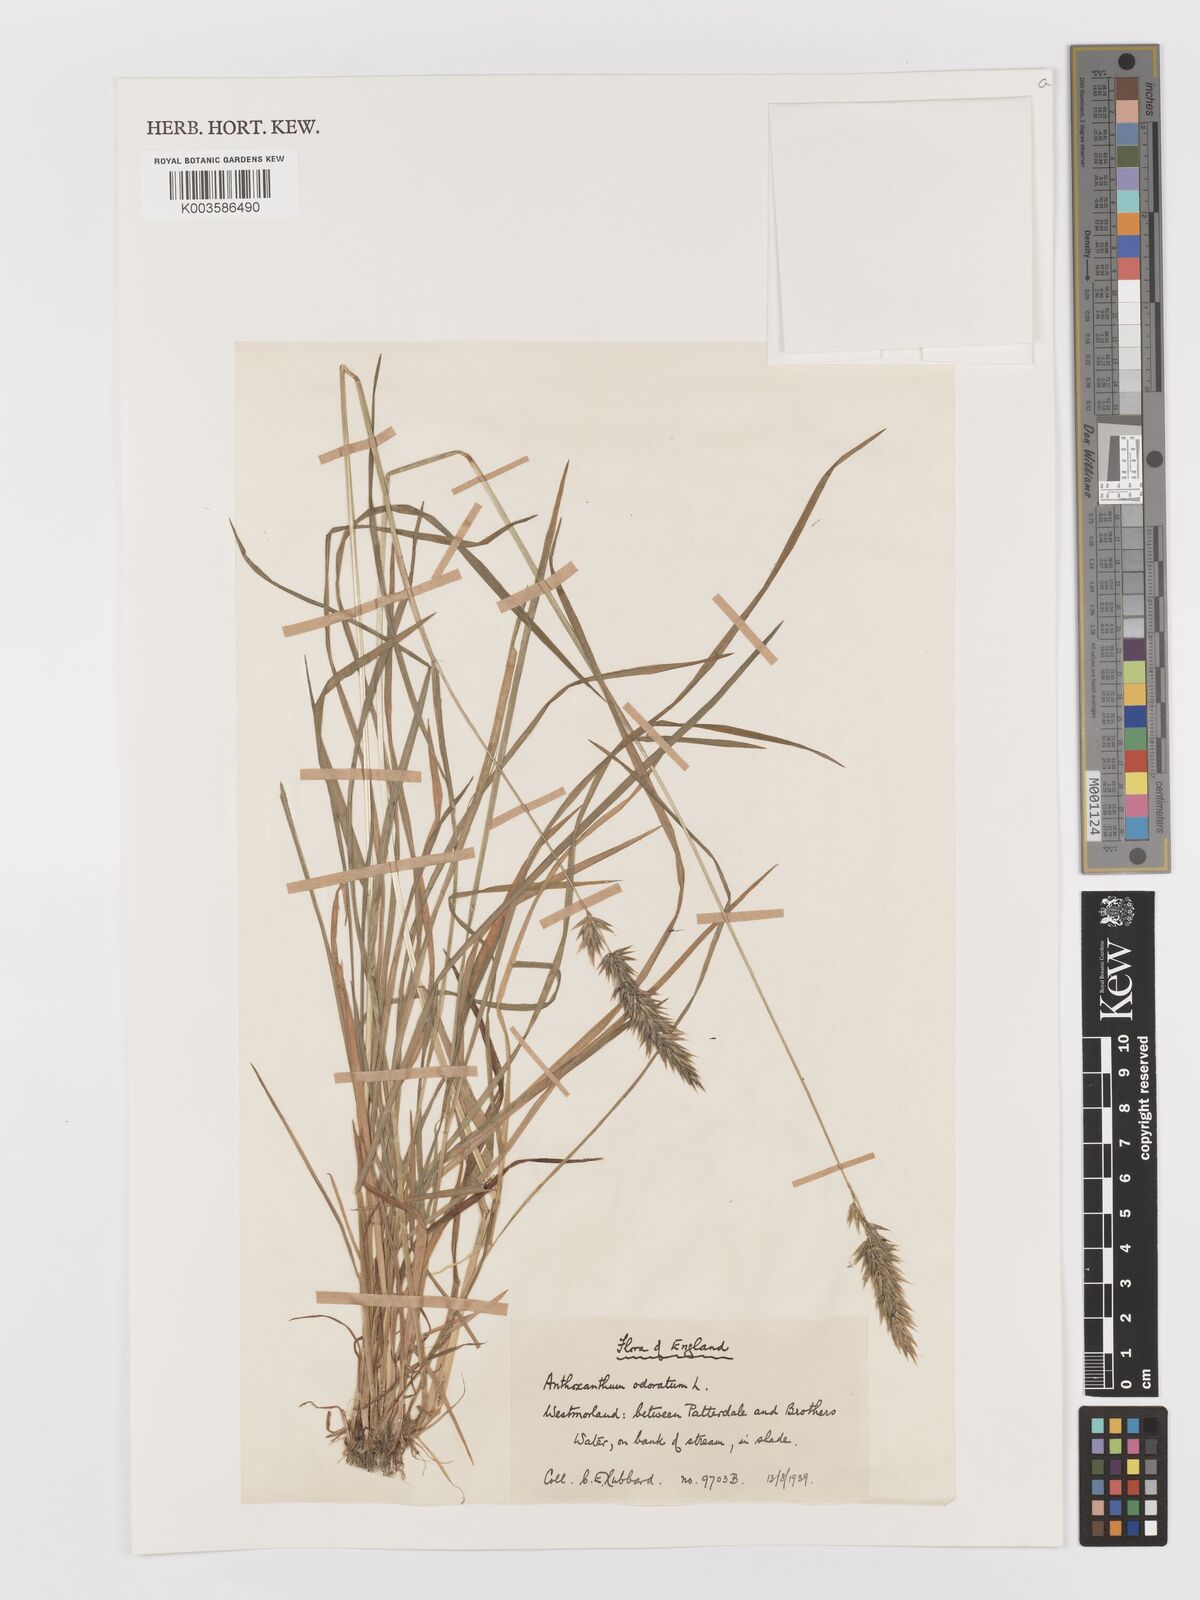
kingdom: Plantae
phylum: Tracheophyta
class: Liliopsida
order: Poales
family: Poaceae
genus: Anthoxanthum
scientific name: Anthoxanthum odoratum
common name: Sweet vernalgrass
